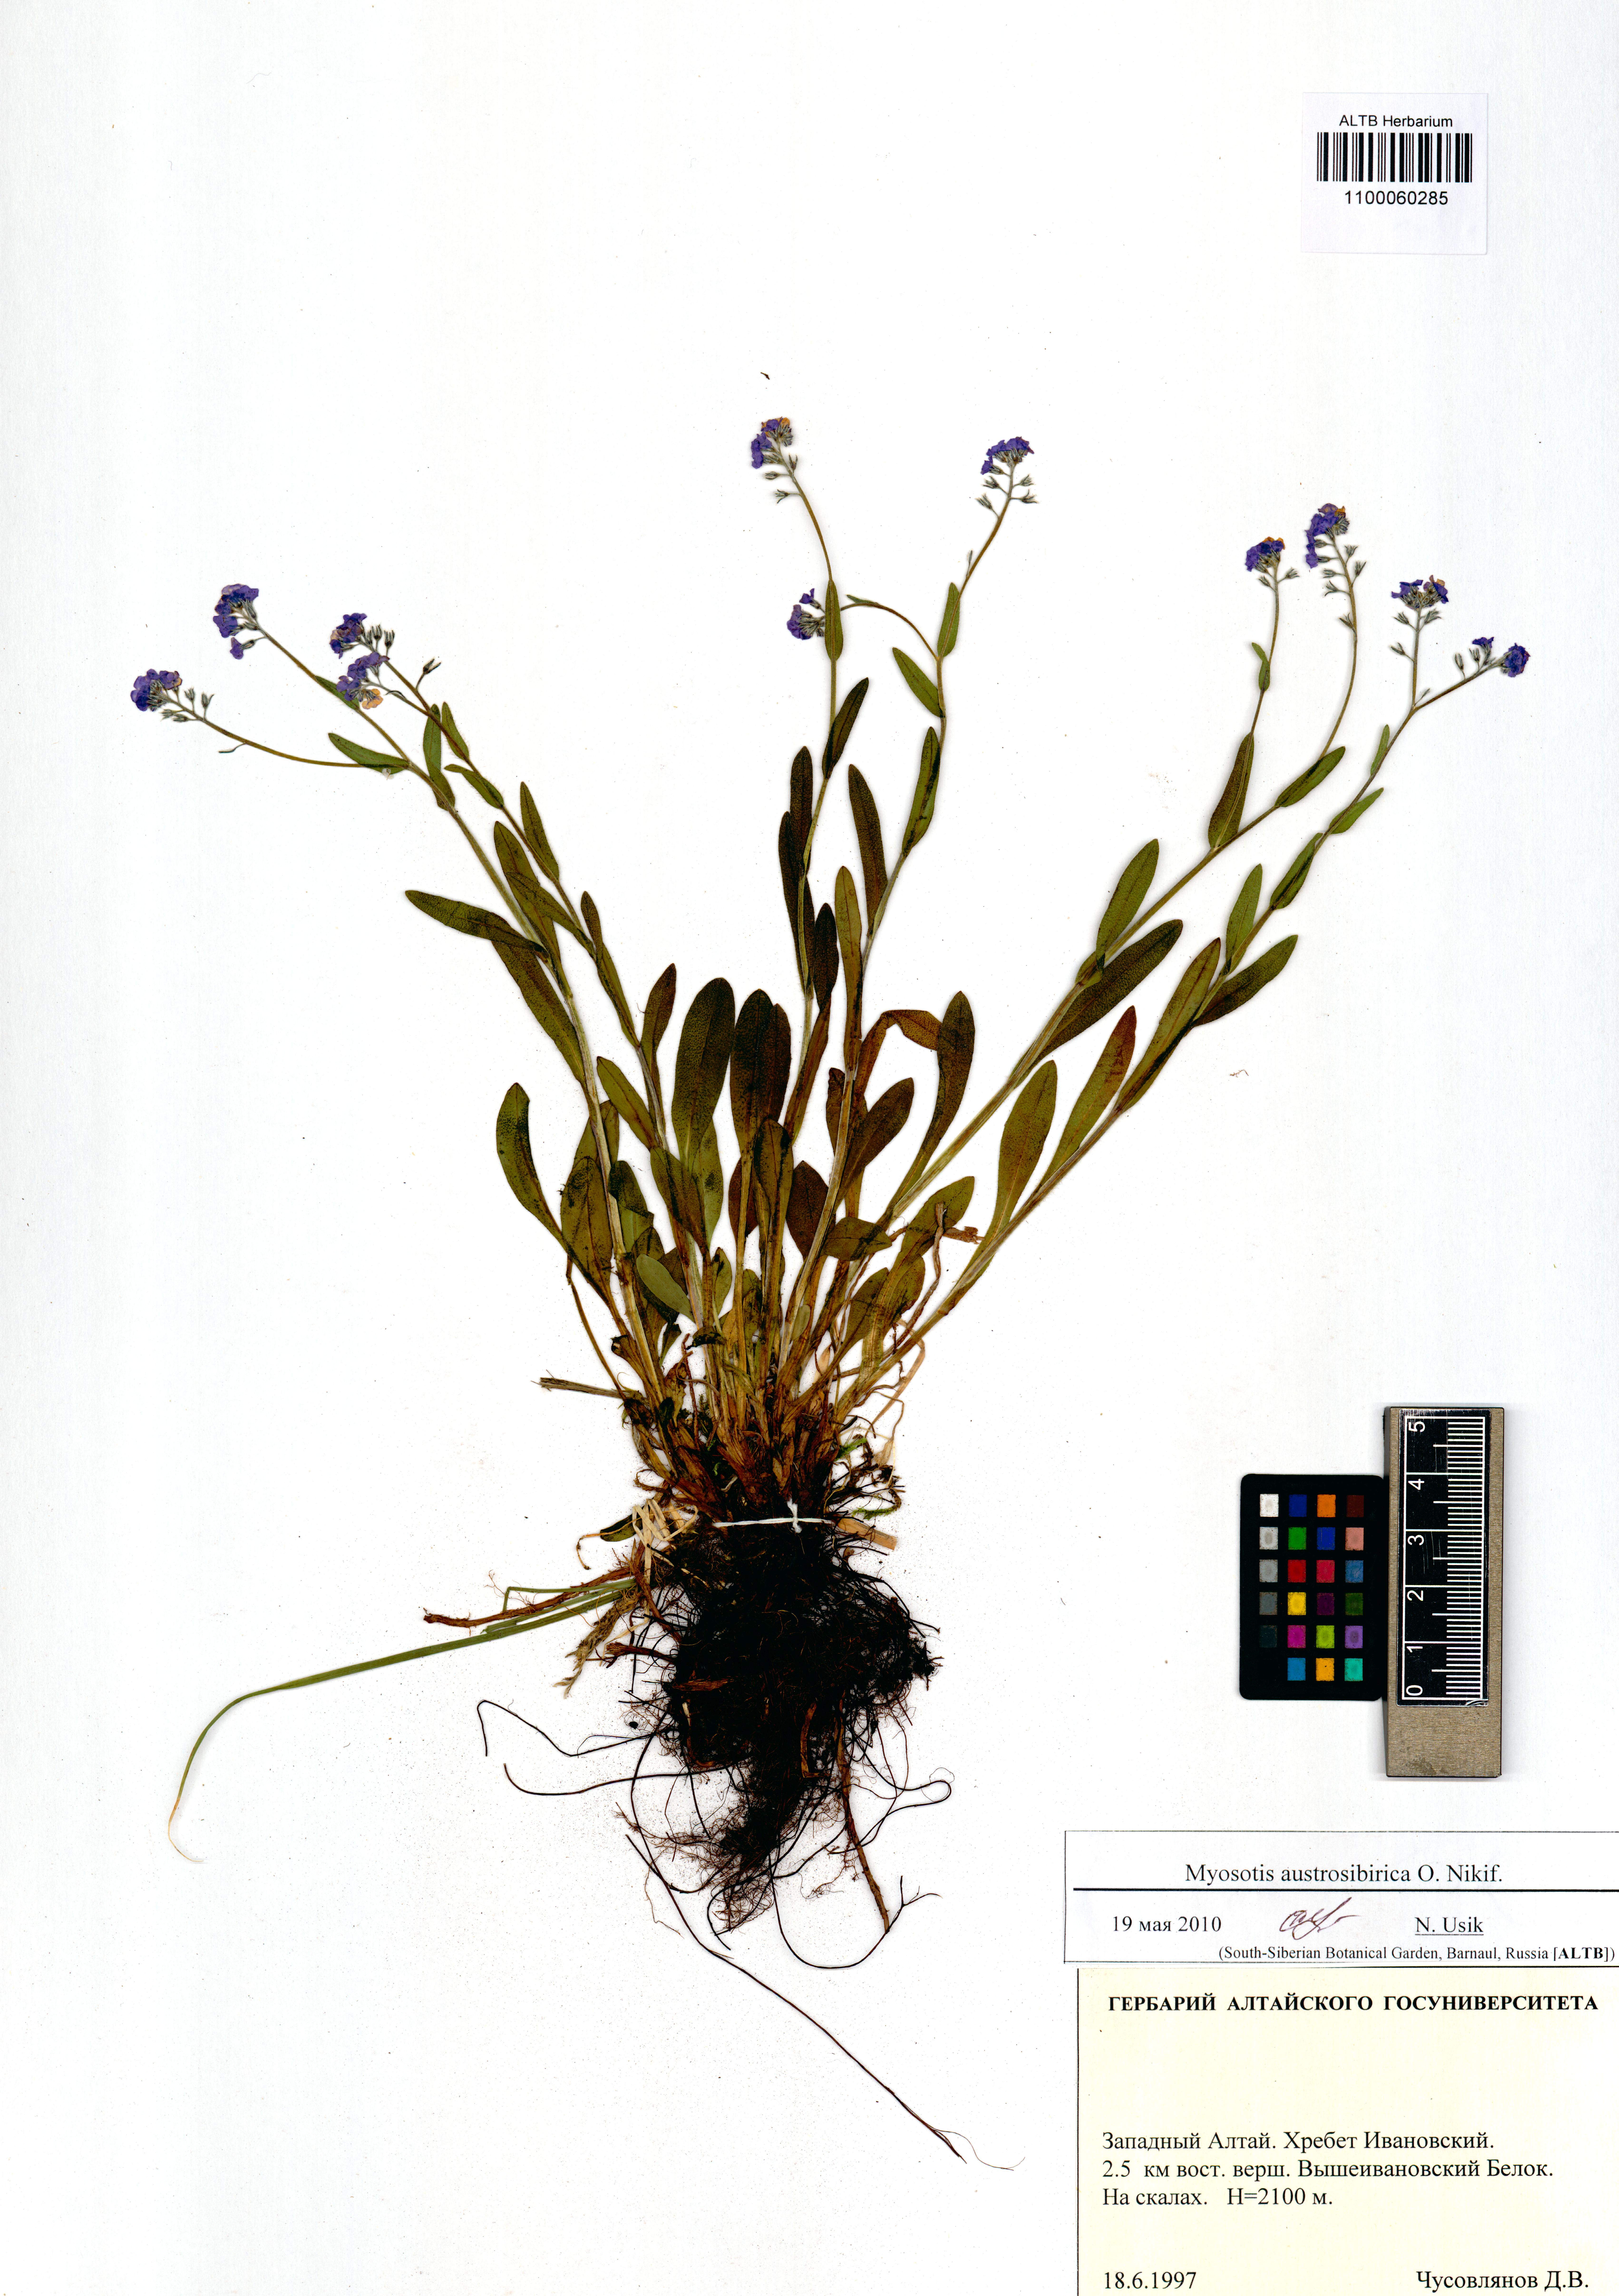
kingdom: Plantae
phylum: Tracheophyta
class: Magnoliopsida
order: Boraginales
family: Boraginaceae
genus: Myosotis
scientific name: Myosotis austrosibirica
